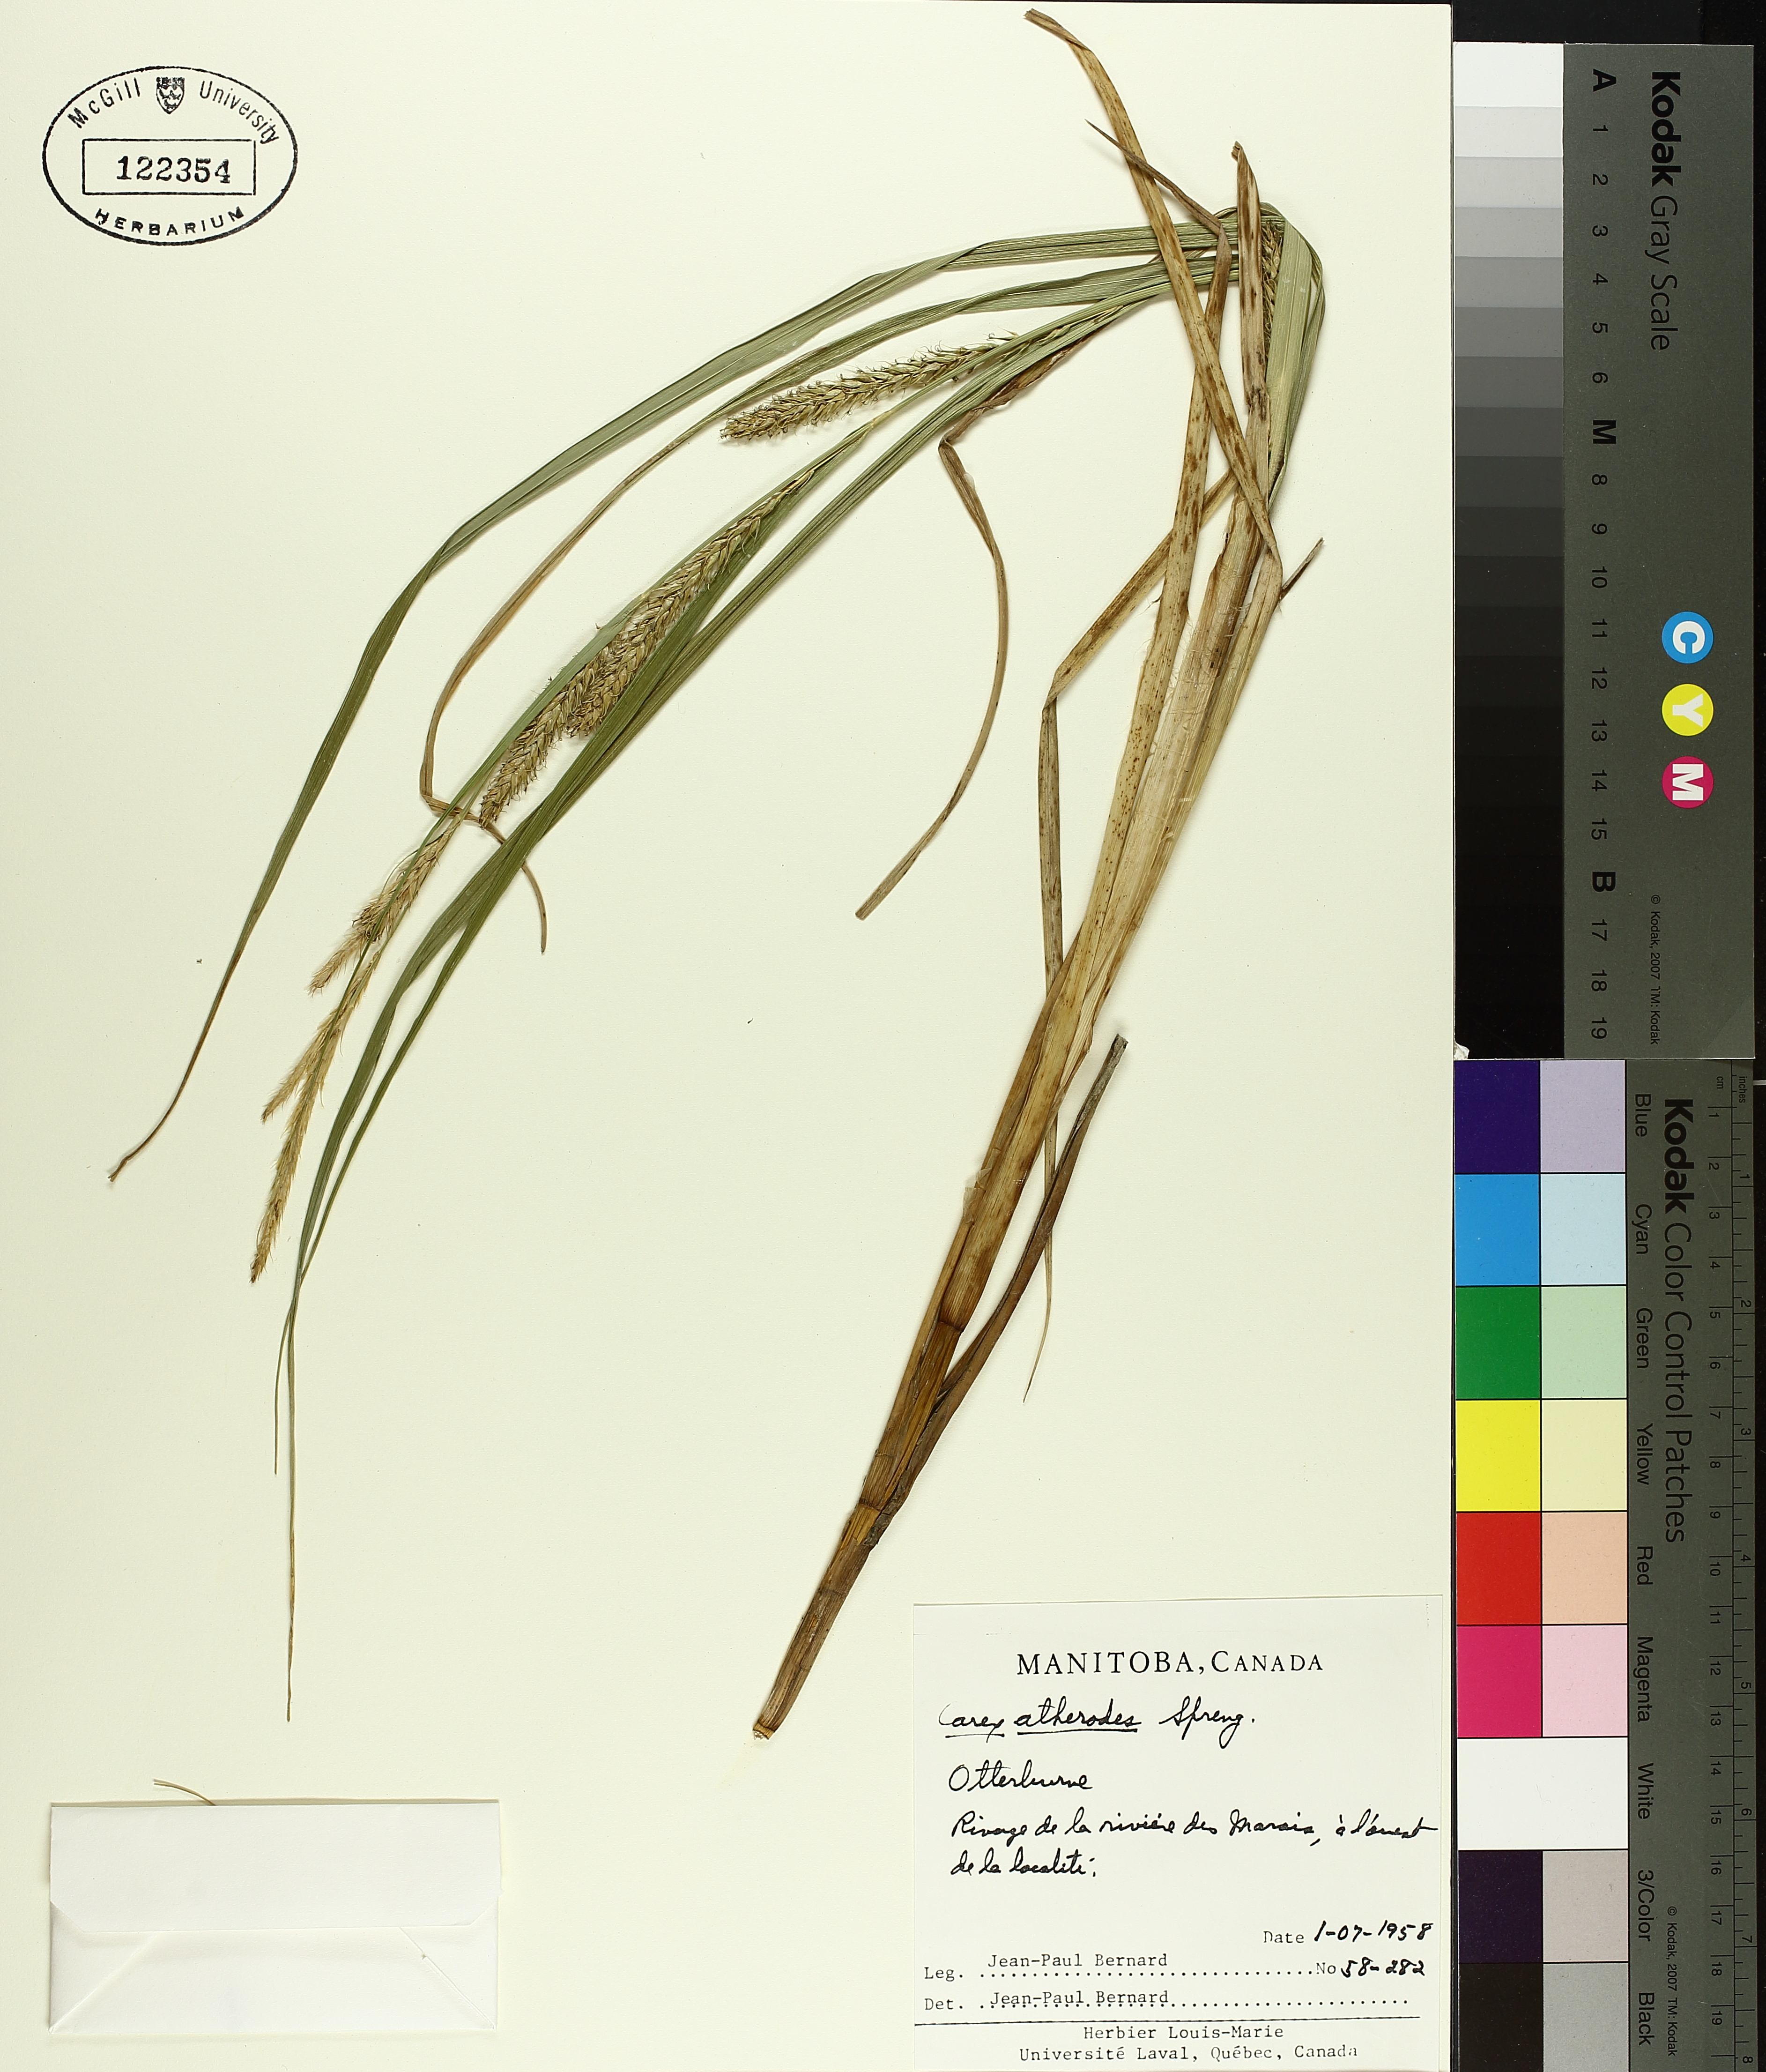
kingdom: Plantae
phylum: Tracheophyta
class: Liliopsida
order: Poales
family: Cyperaceae
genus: Carex
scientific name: Carex atherodes
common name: Wheat sedge
